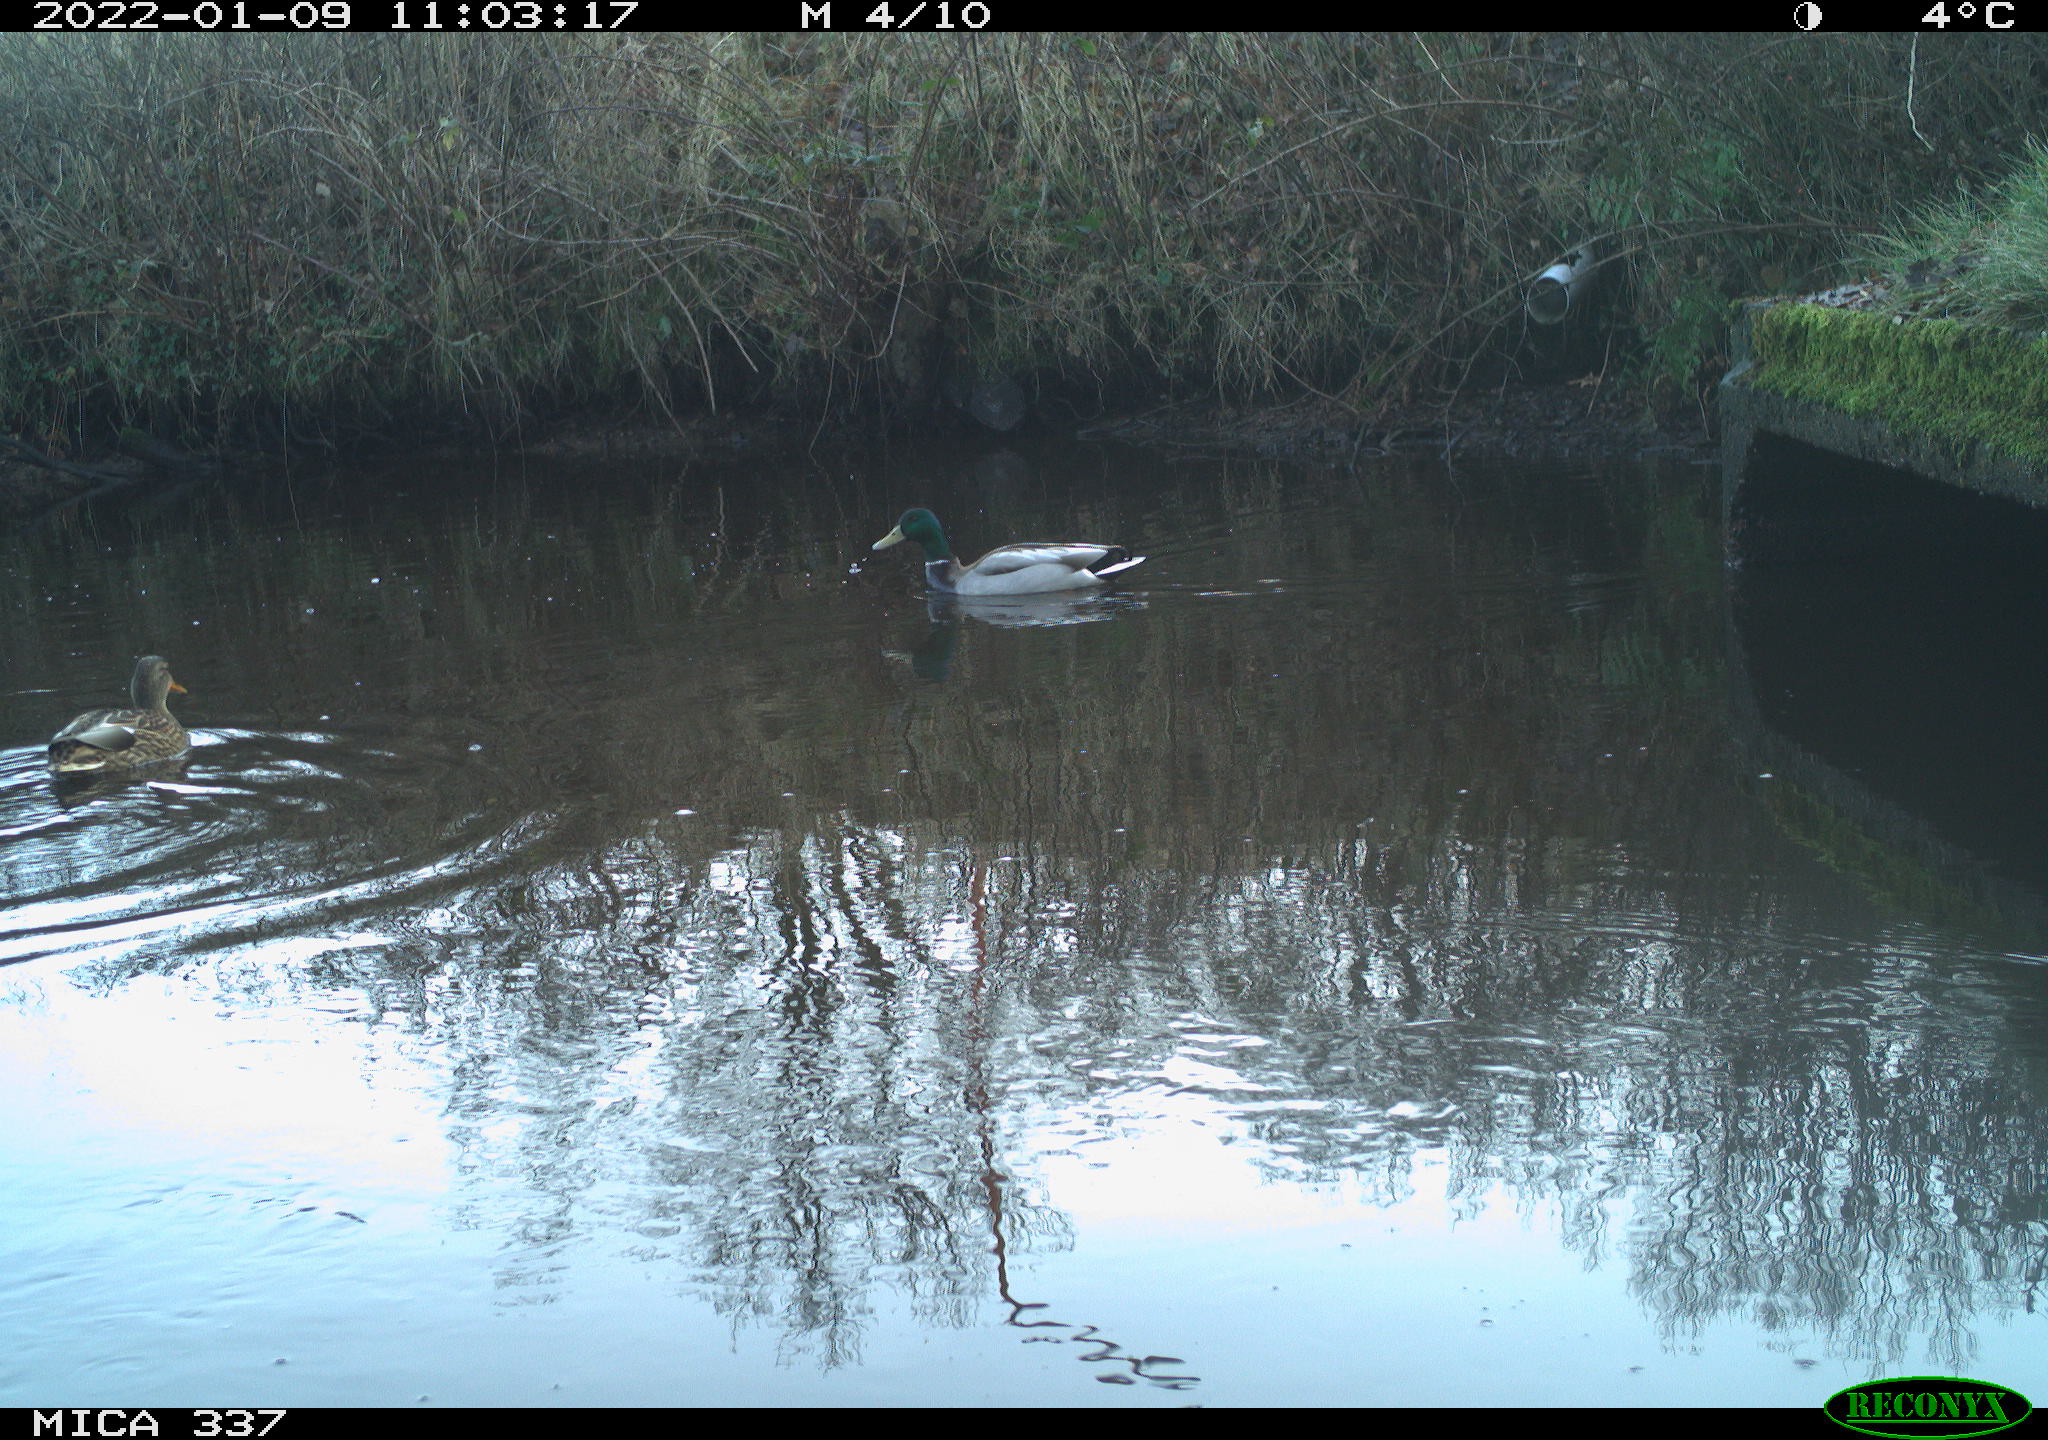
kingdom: Animalia
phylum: Chordata
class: Aves
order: Anseriformes
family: Anatidae
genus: Anas
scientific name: Anas platyrhynchos
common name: Mallard
